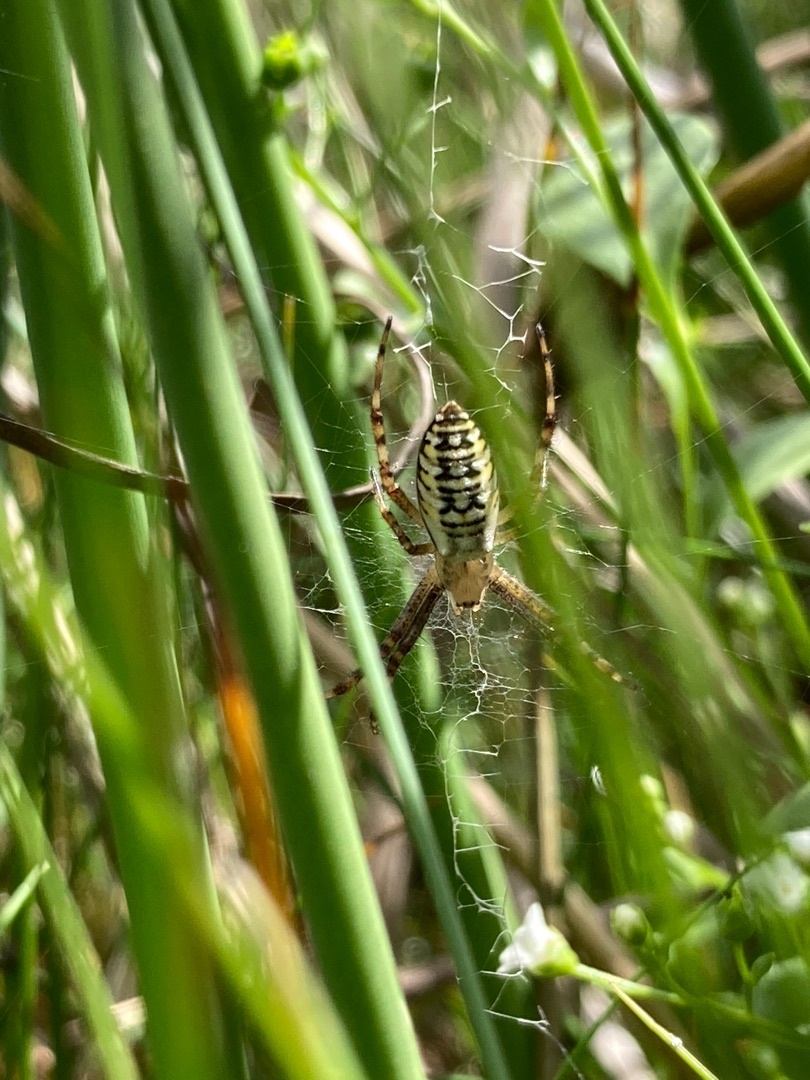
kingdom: Animalia
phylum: Arthropoda
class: Arachnida
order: Araneae
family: Araneidae
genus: Argiope
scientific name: Argiope bruennichi
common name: Hvepseedderkop
